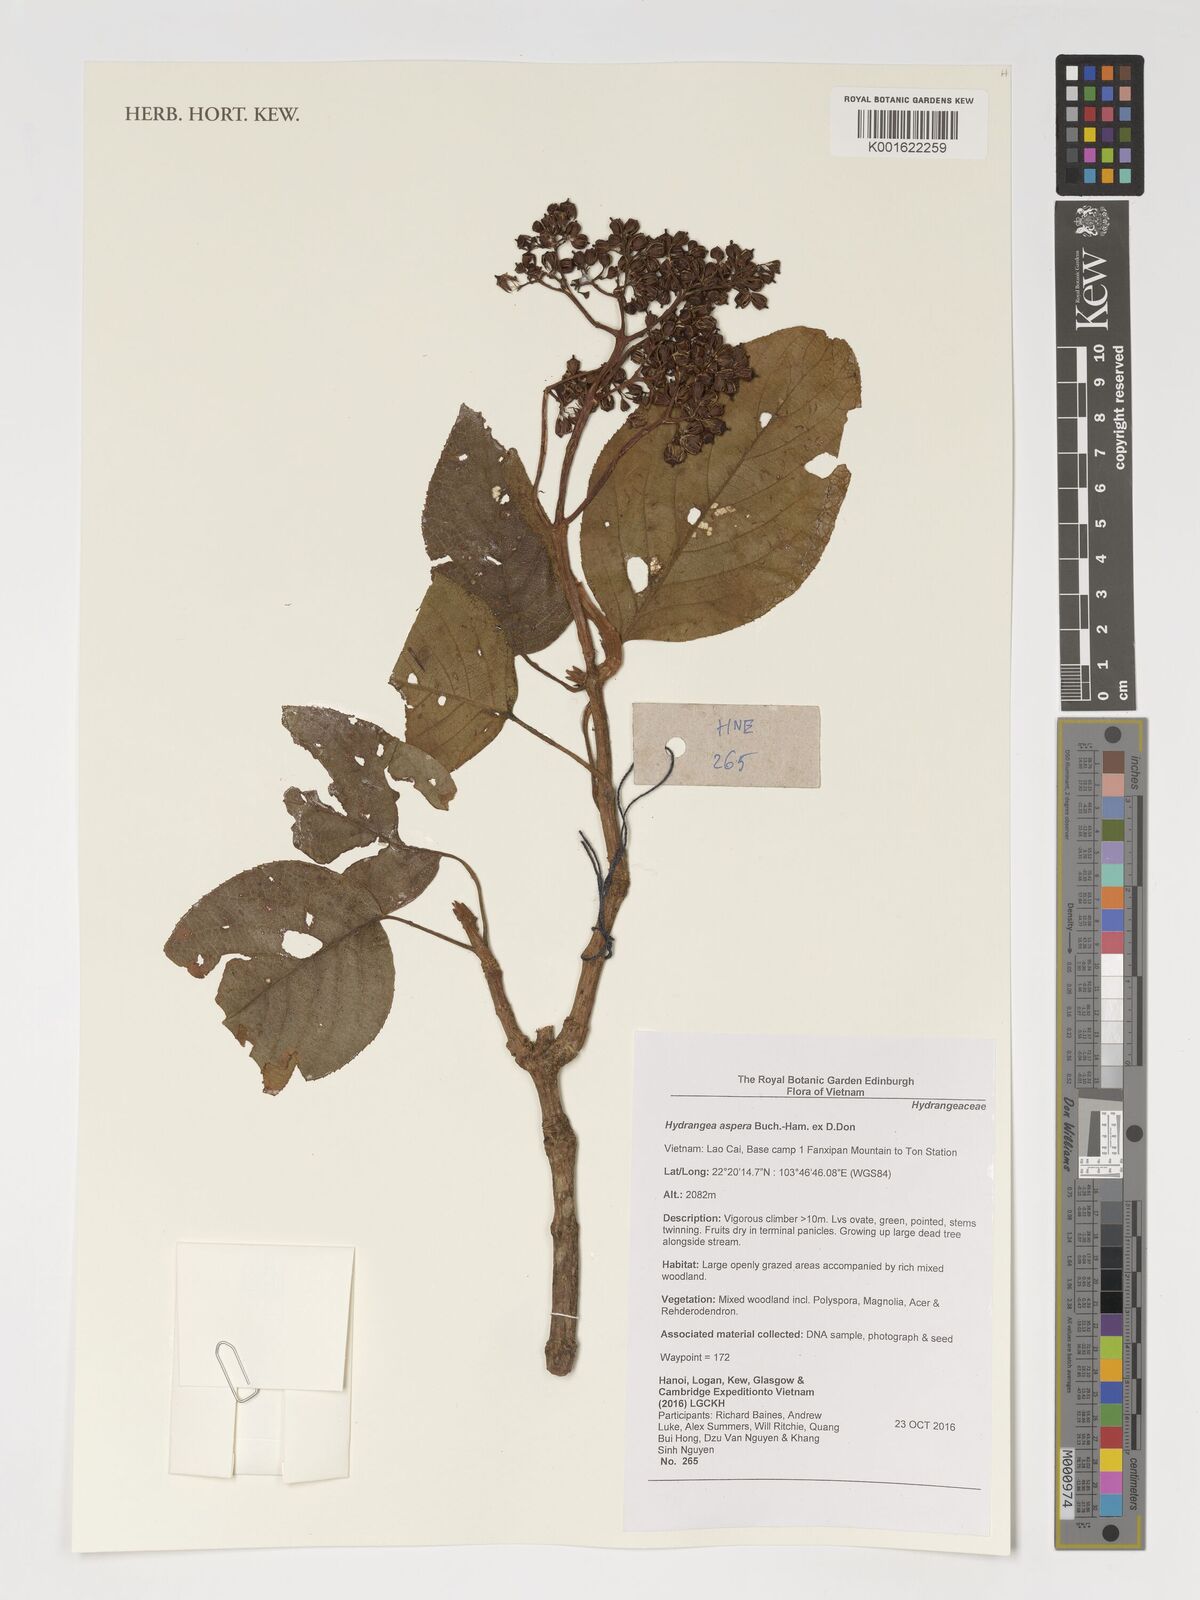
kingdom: Plantae
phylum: Tracheophyta
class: Magnoliopsida
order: Cornales
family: Hydrangeaceae
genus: Hydrangea
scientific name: Hydrangea aspera
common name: Rough-leaf hydrangea
